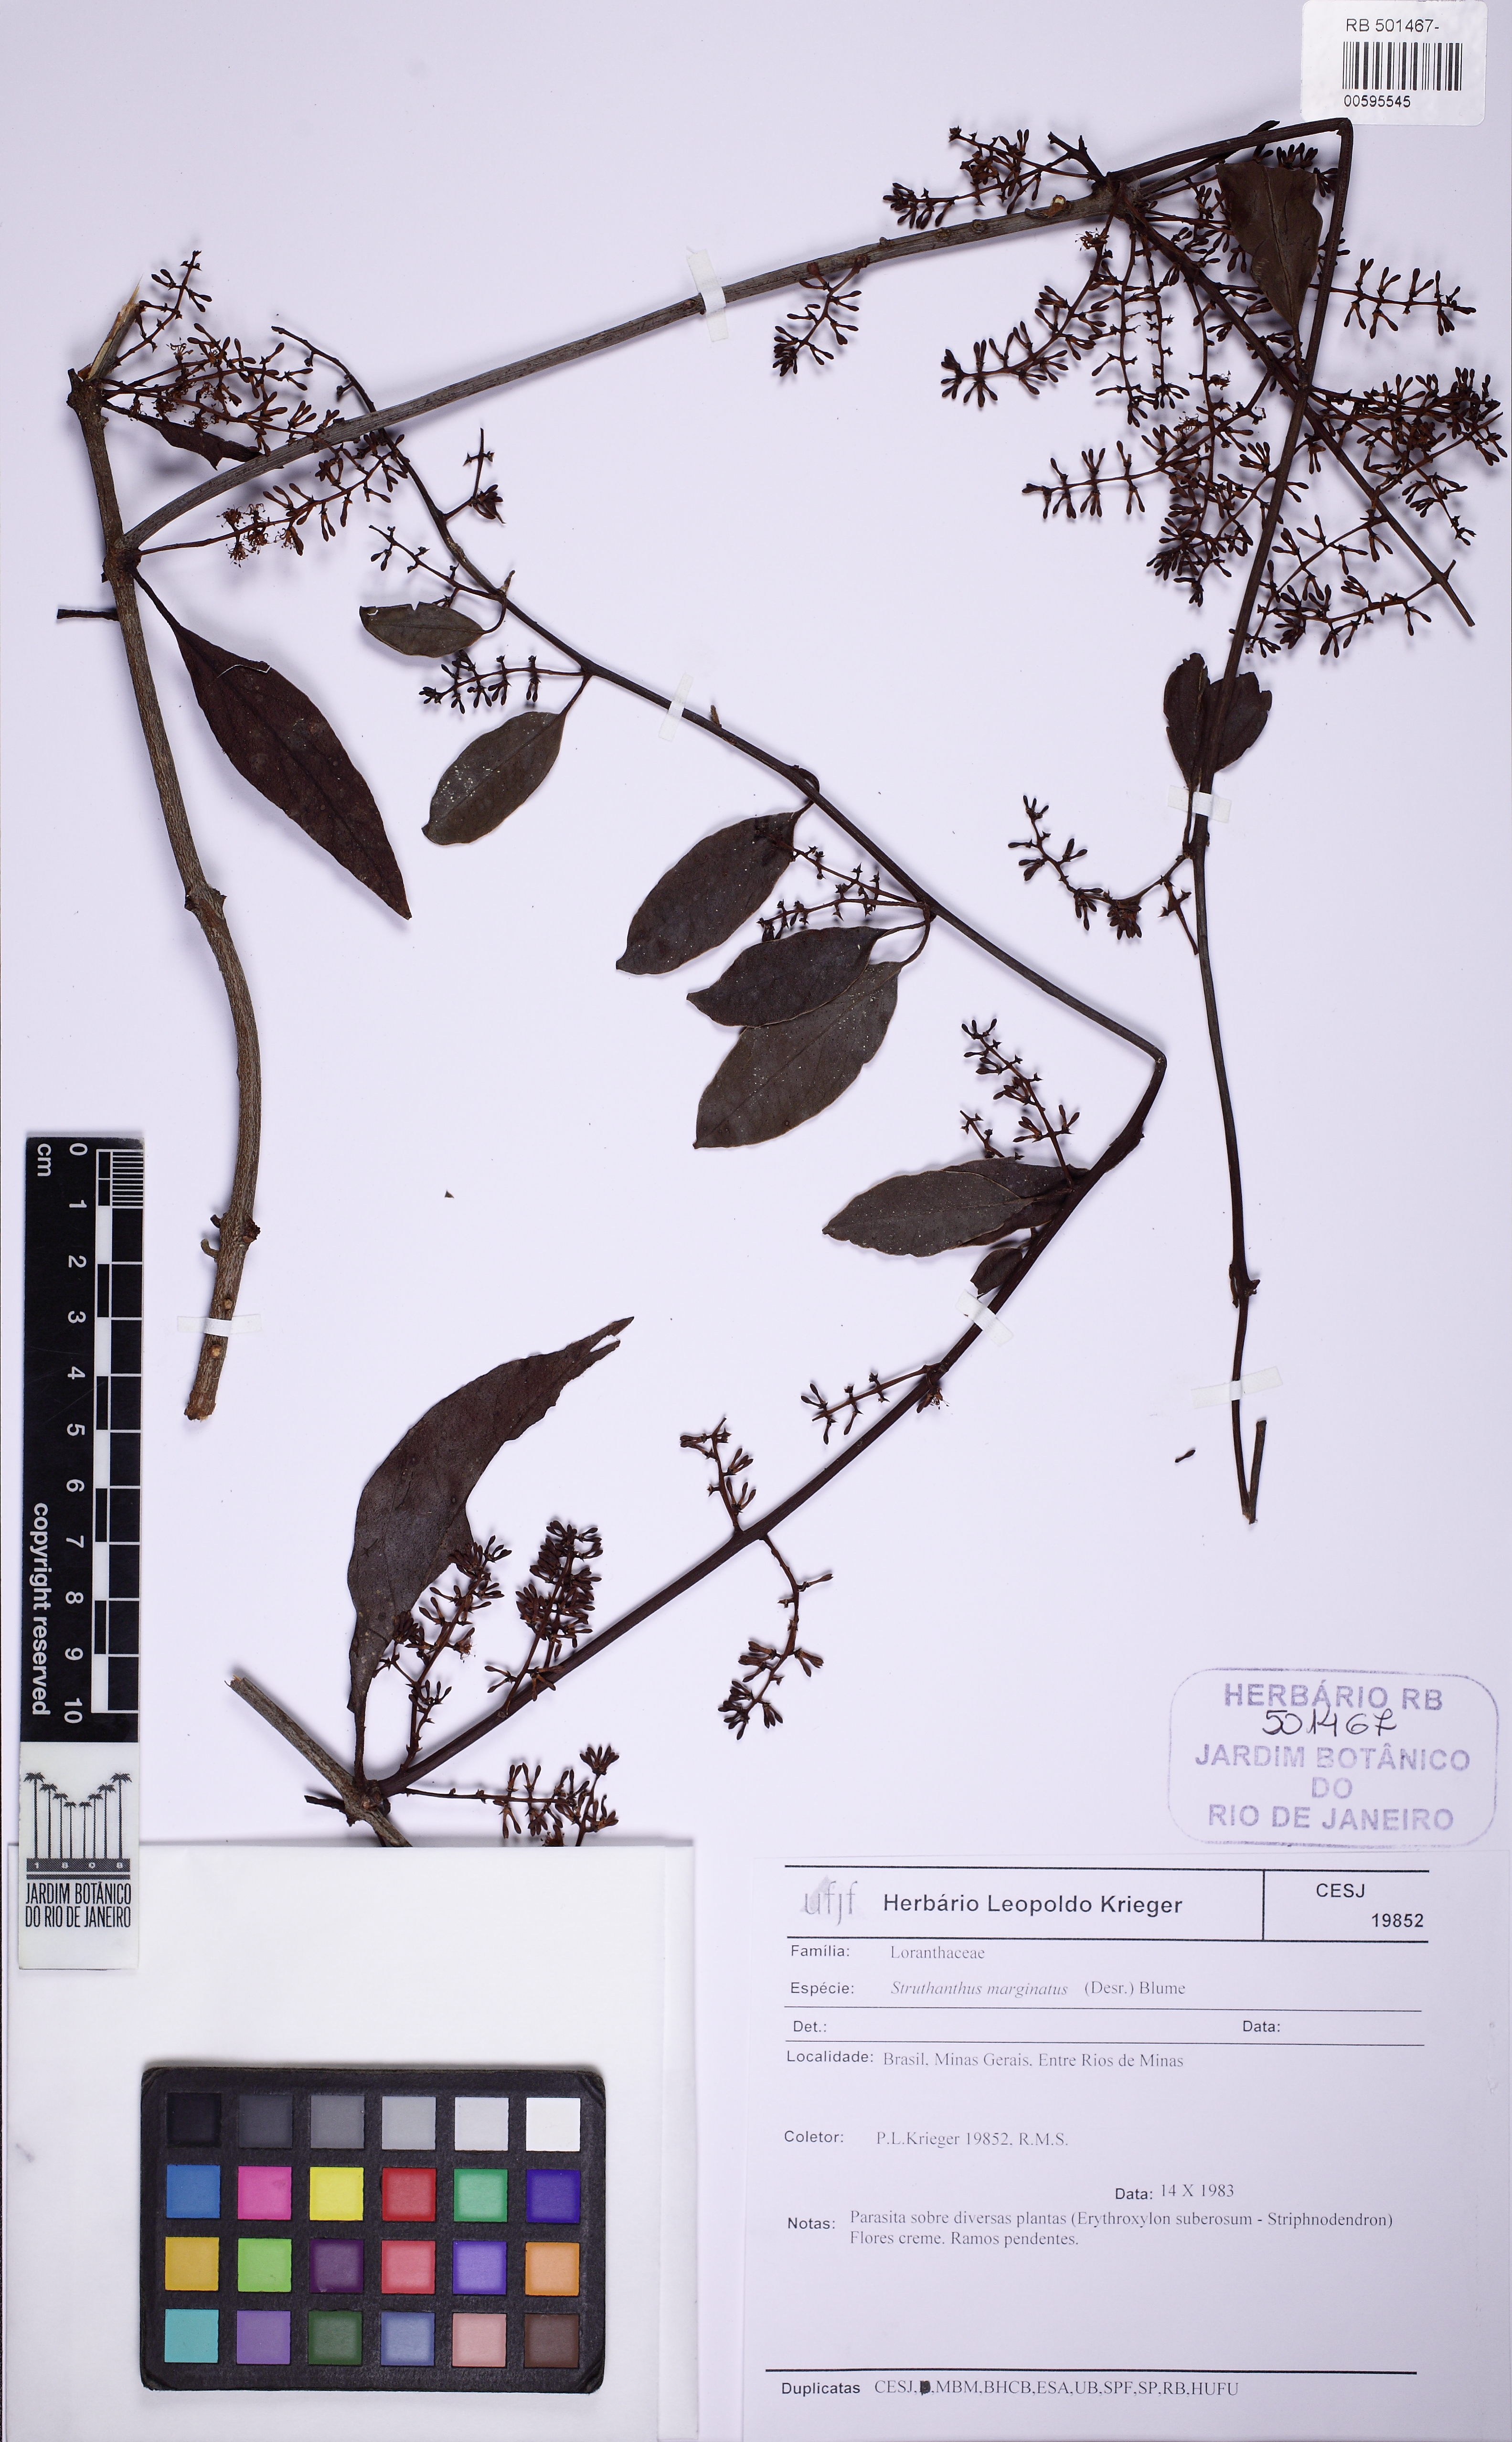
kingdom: Plantae
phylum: Tracheophyta
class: Magnoliopsida
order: Santalales
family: Loranthaceae
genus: Struthanthus
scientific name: Struthanthus marginatus
